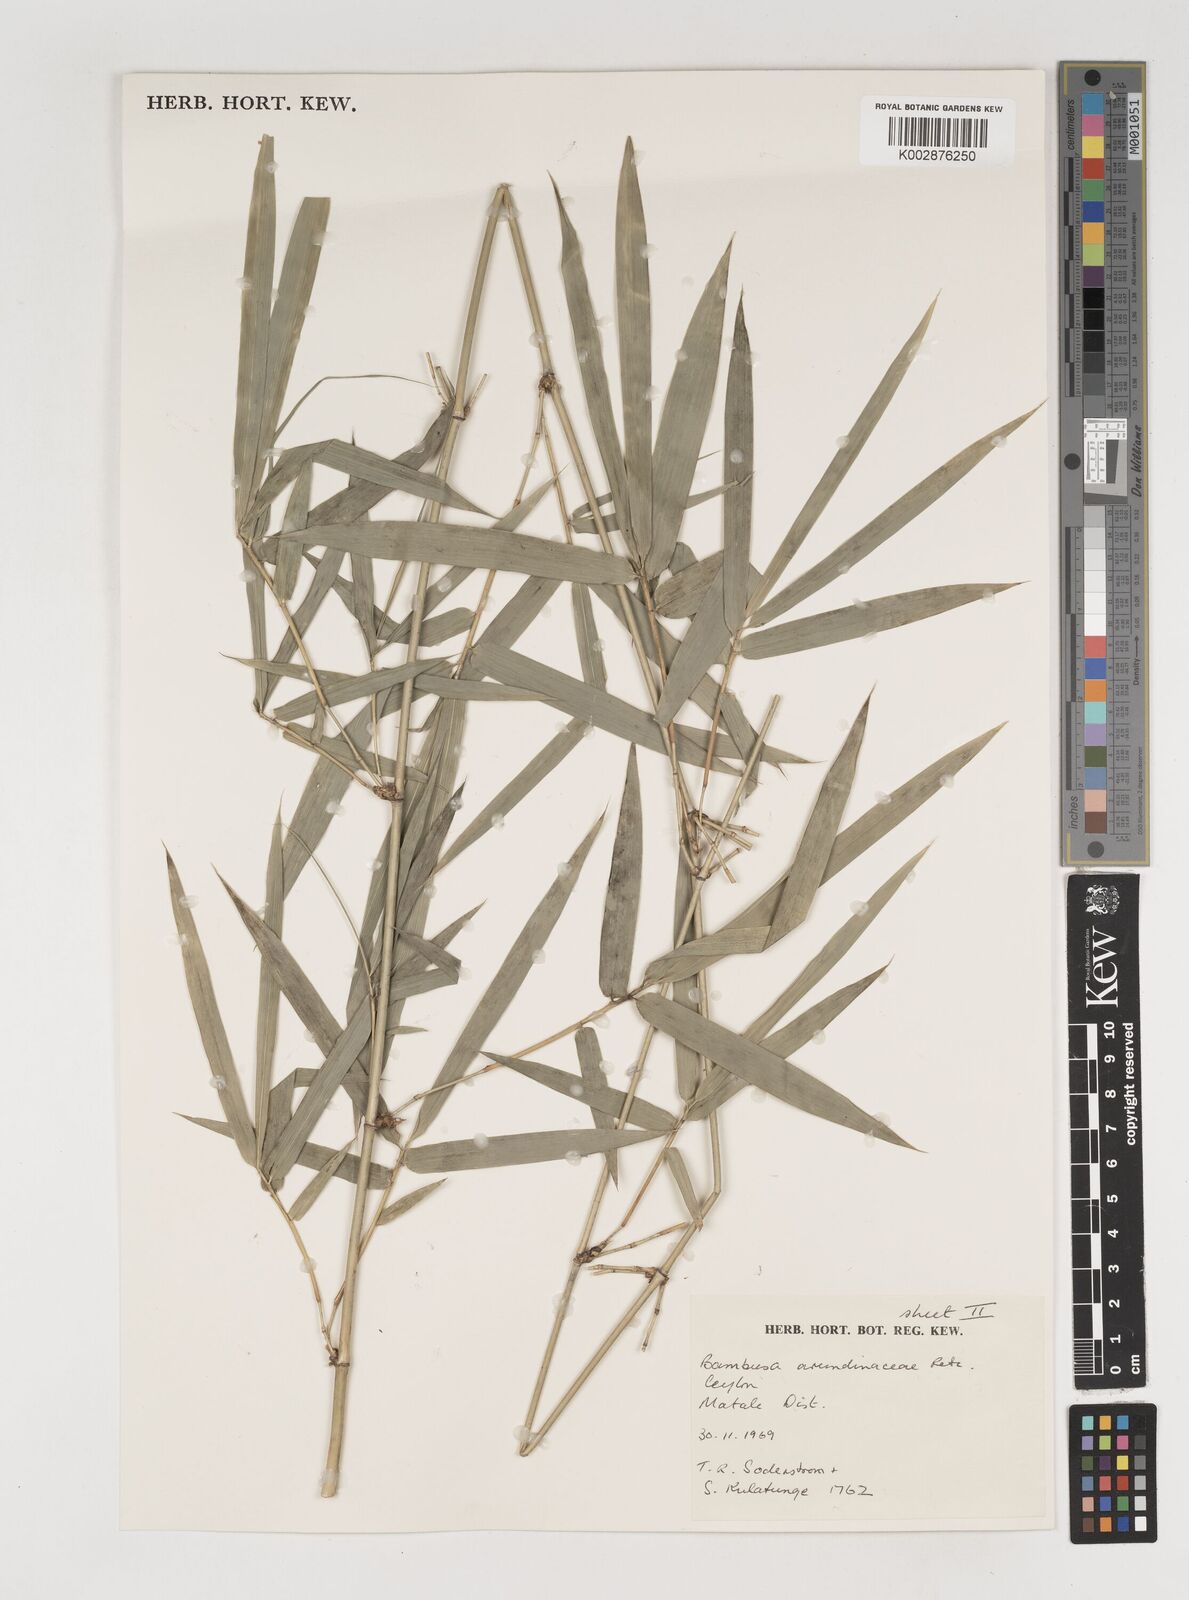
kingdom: Plantae
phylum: Tracheophyta
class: Liliopsida
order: Poales
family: Poaceae
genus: Bambusa
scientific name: Bambusa bambos
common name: Indian thorny bamboo
